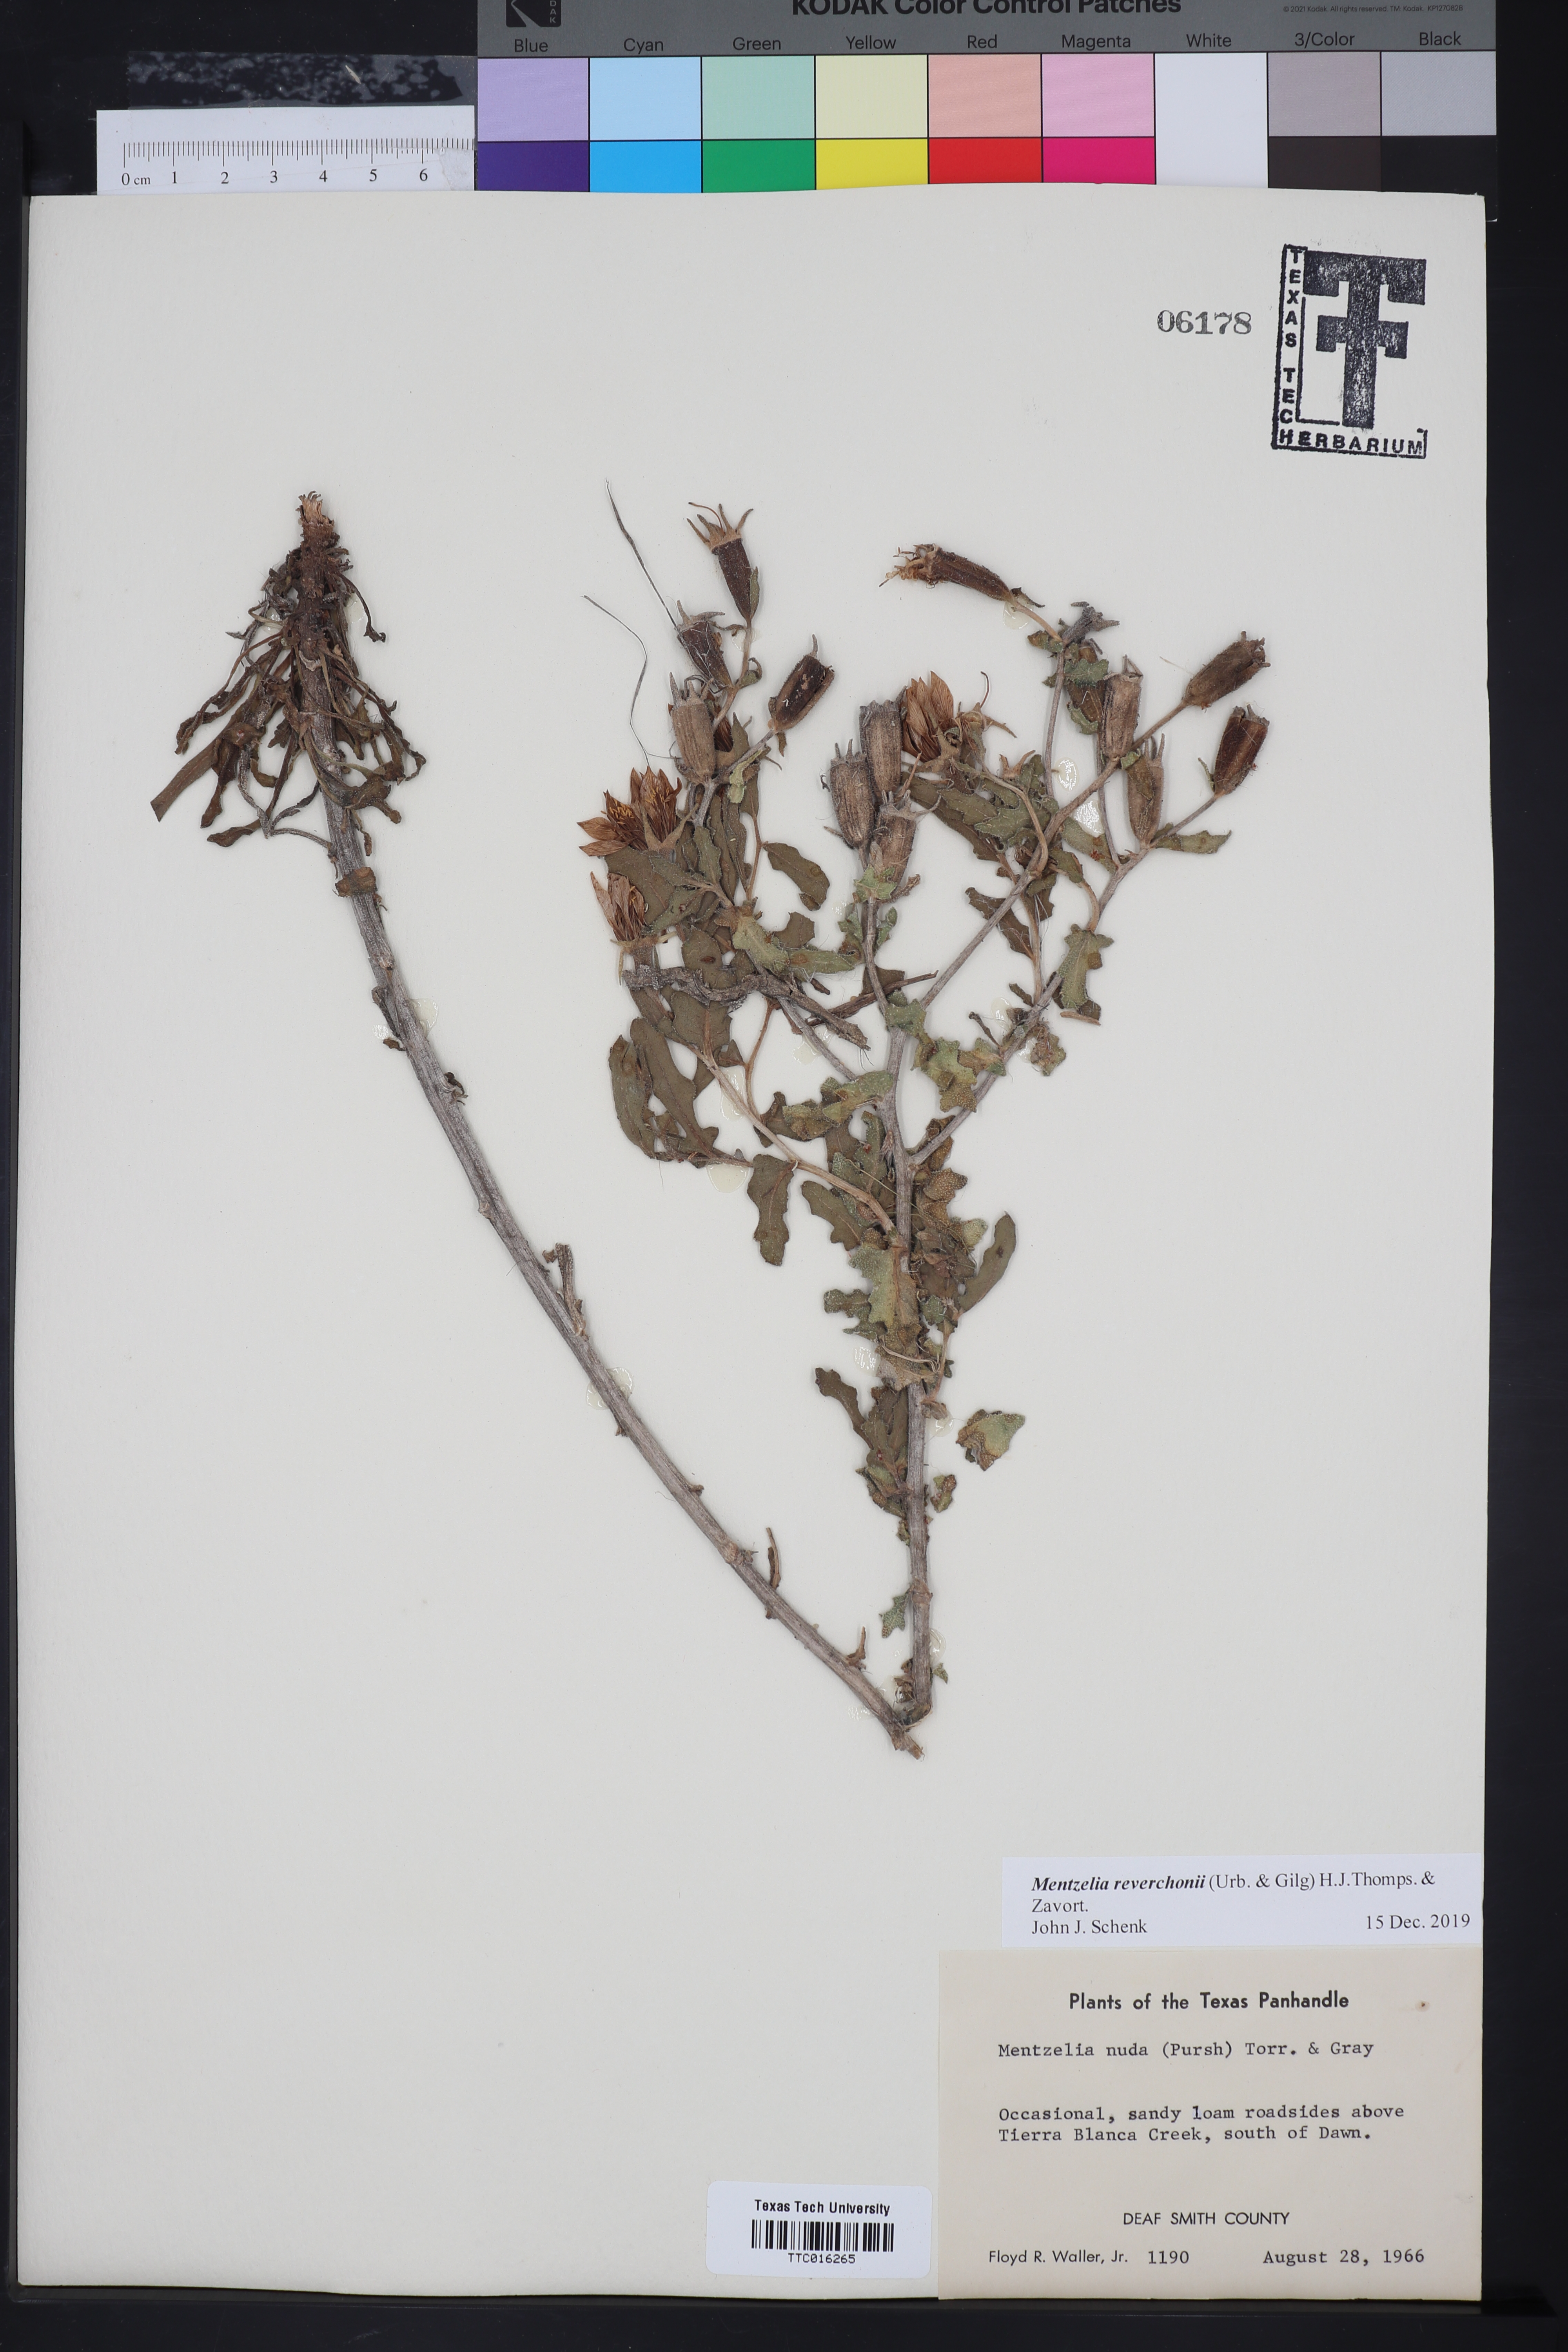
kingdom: Plantae
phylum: Tracheophyta
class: Magnoliopsida
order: Cornales
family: Loasaceae
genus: Mentzelia
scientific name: Mentzelia reverchonii
